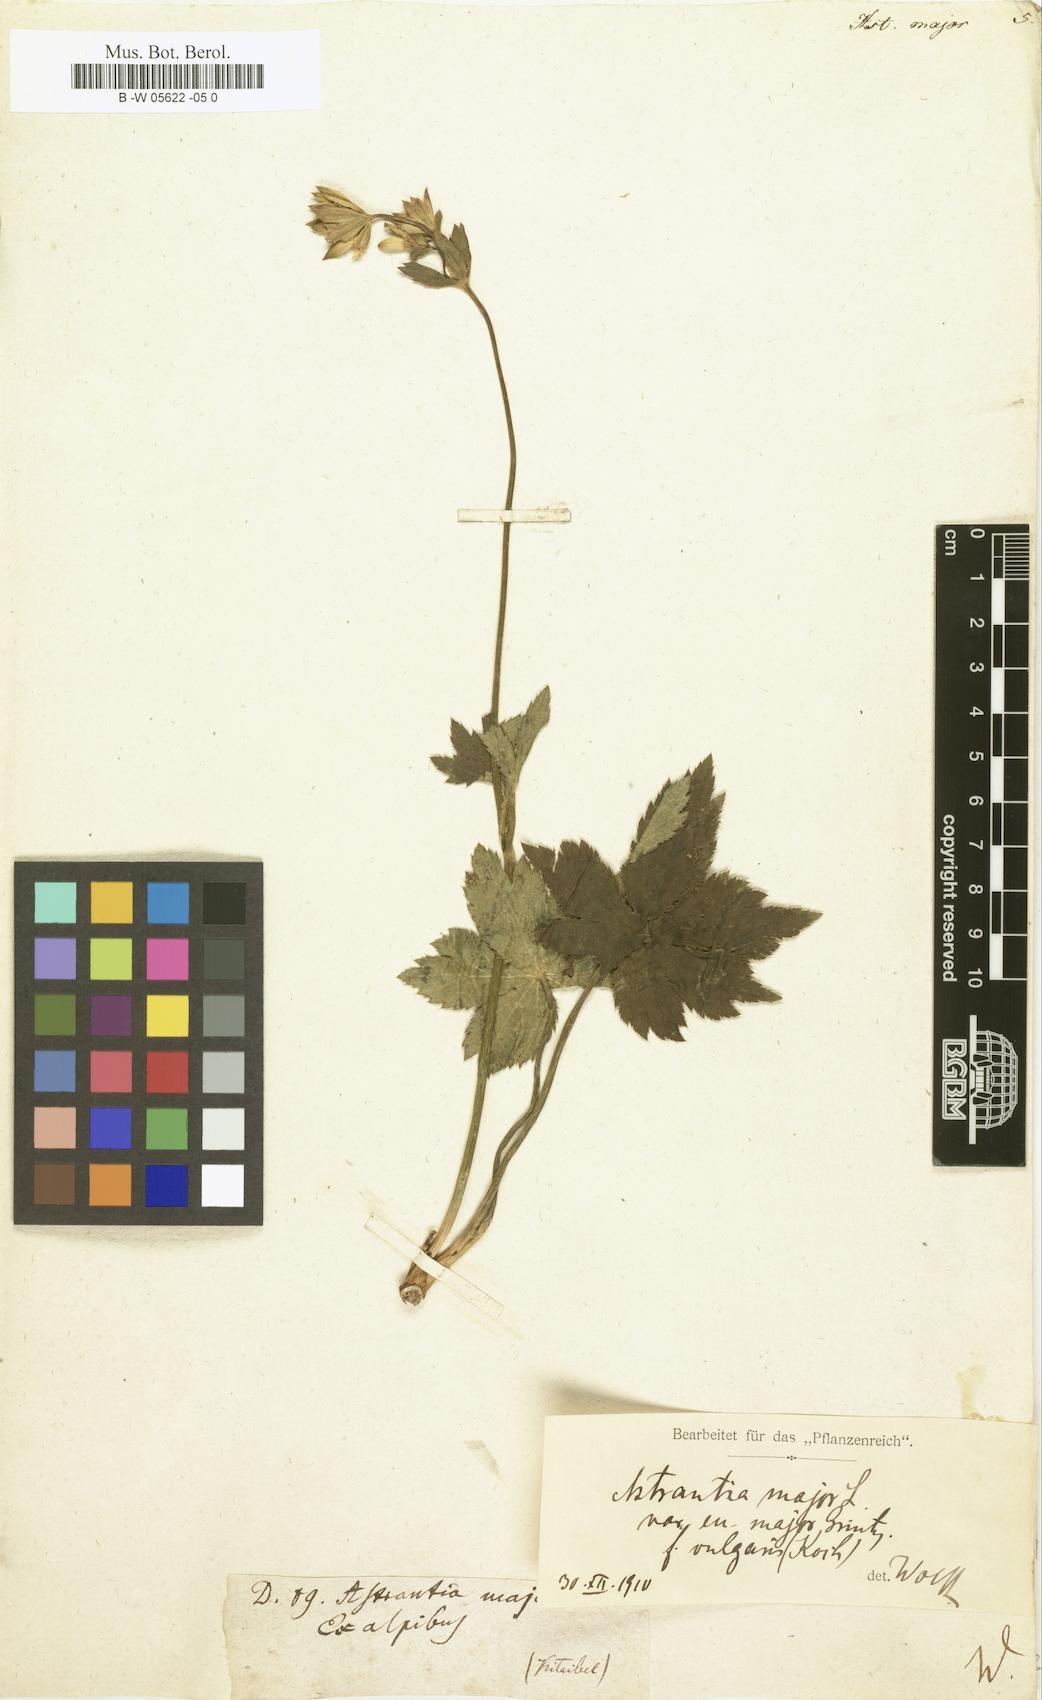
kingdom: Plantae
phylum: Tracheophyta
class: Magnoliopsida
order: Apiales
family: Apiaceae
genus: Astrantia
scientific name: Astrantia major
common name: Greater masterwort
